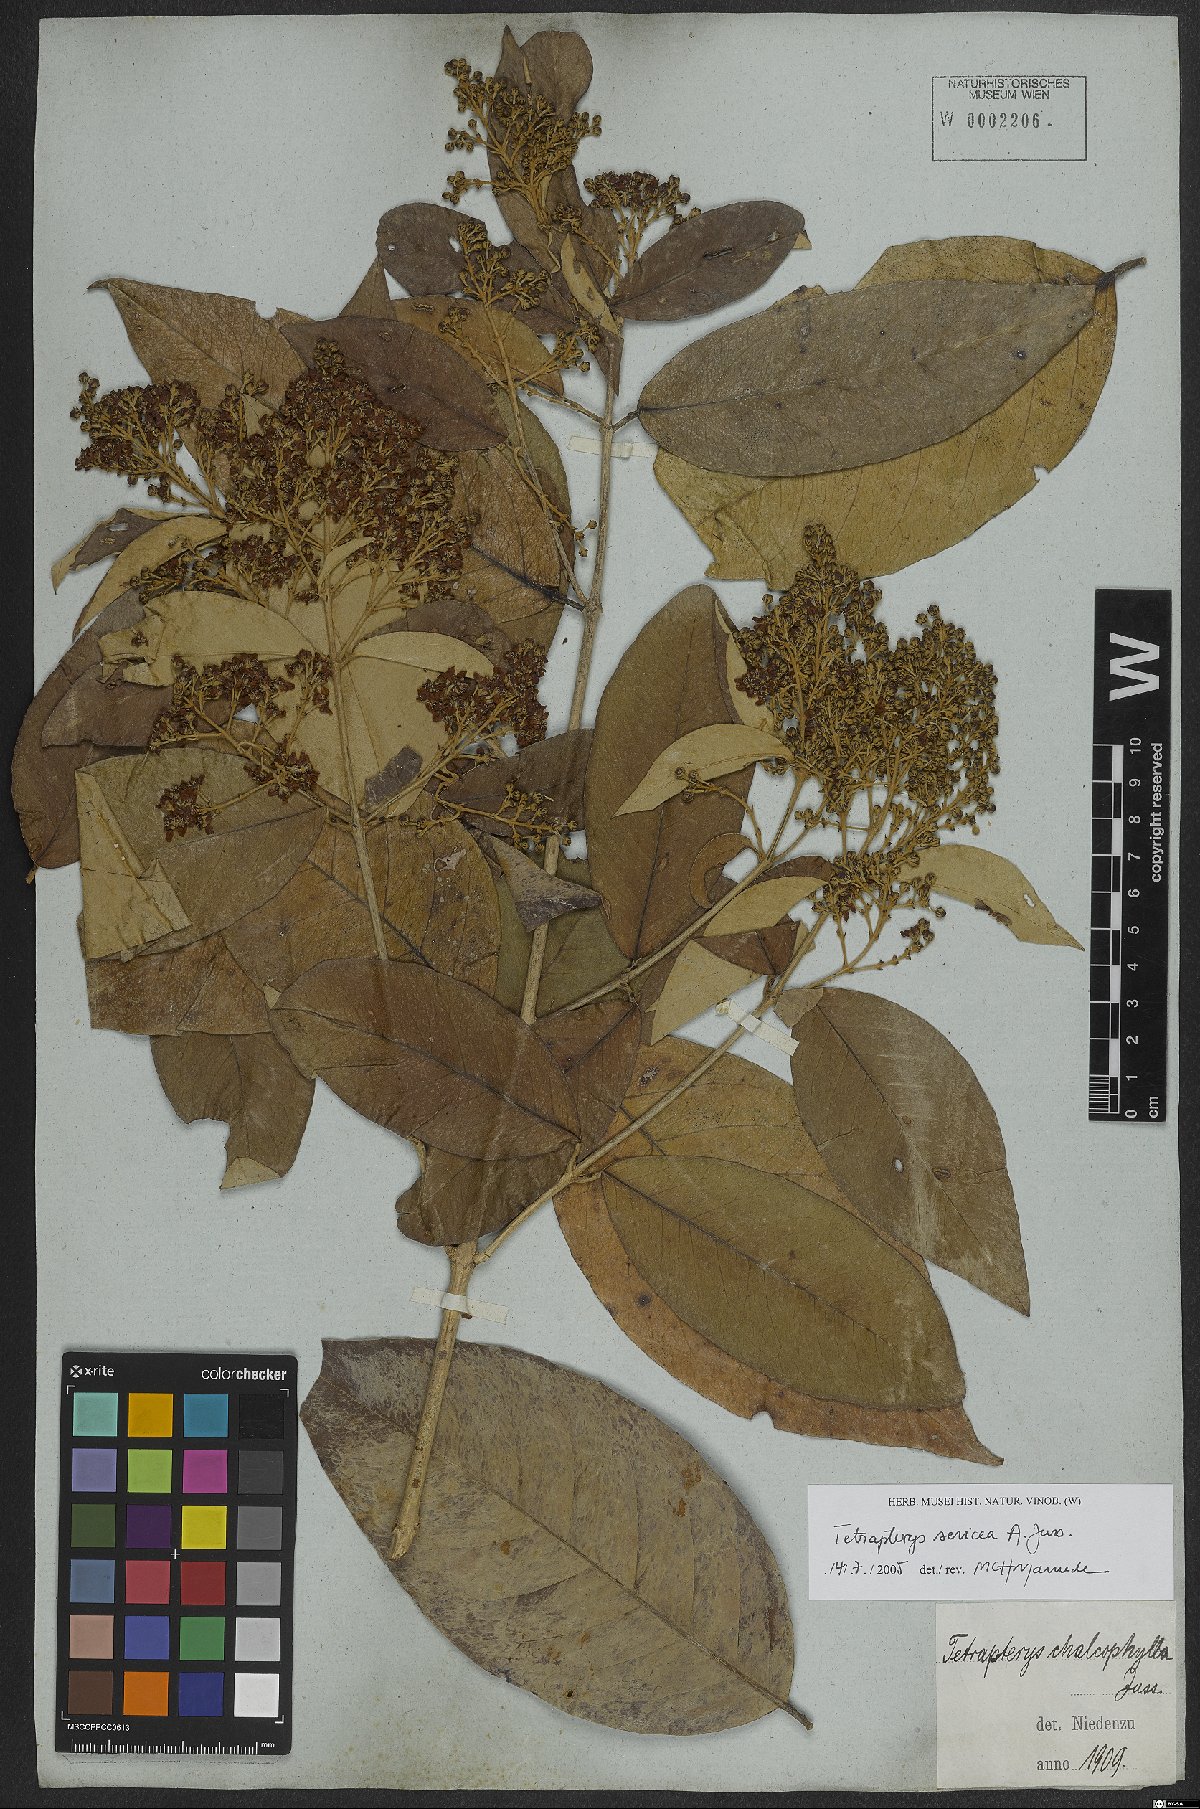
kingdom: Plantae
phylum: Tracheophyta
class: Magnoliopsida
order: Malpighiales
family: Malpighiaceae
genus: Niedenzuella
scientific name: Niedenzuella sericea
